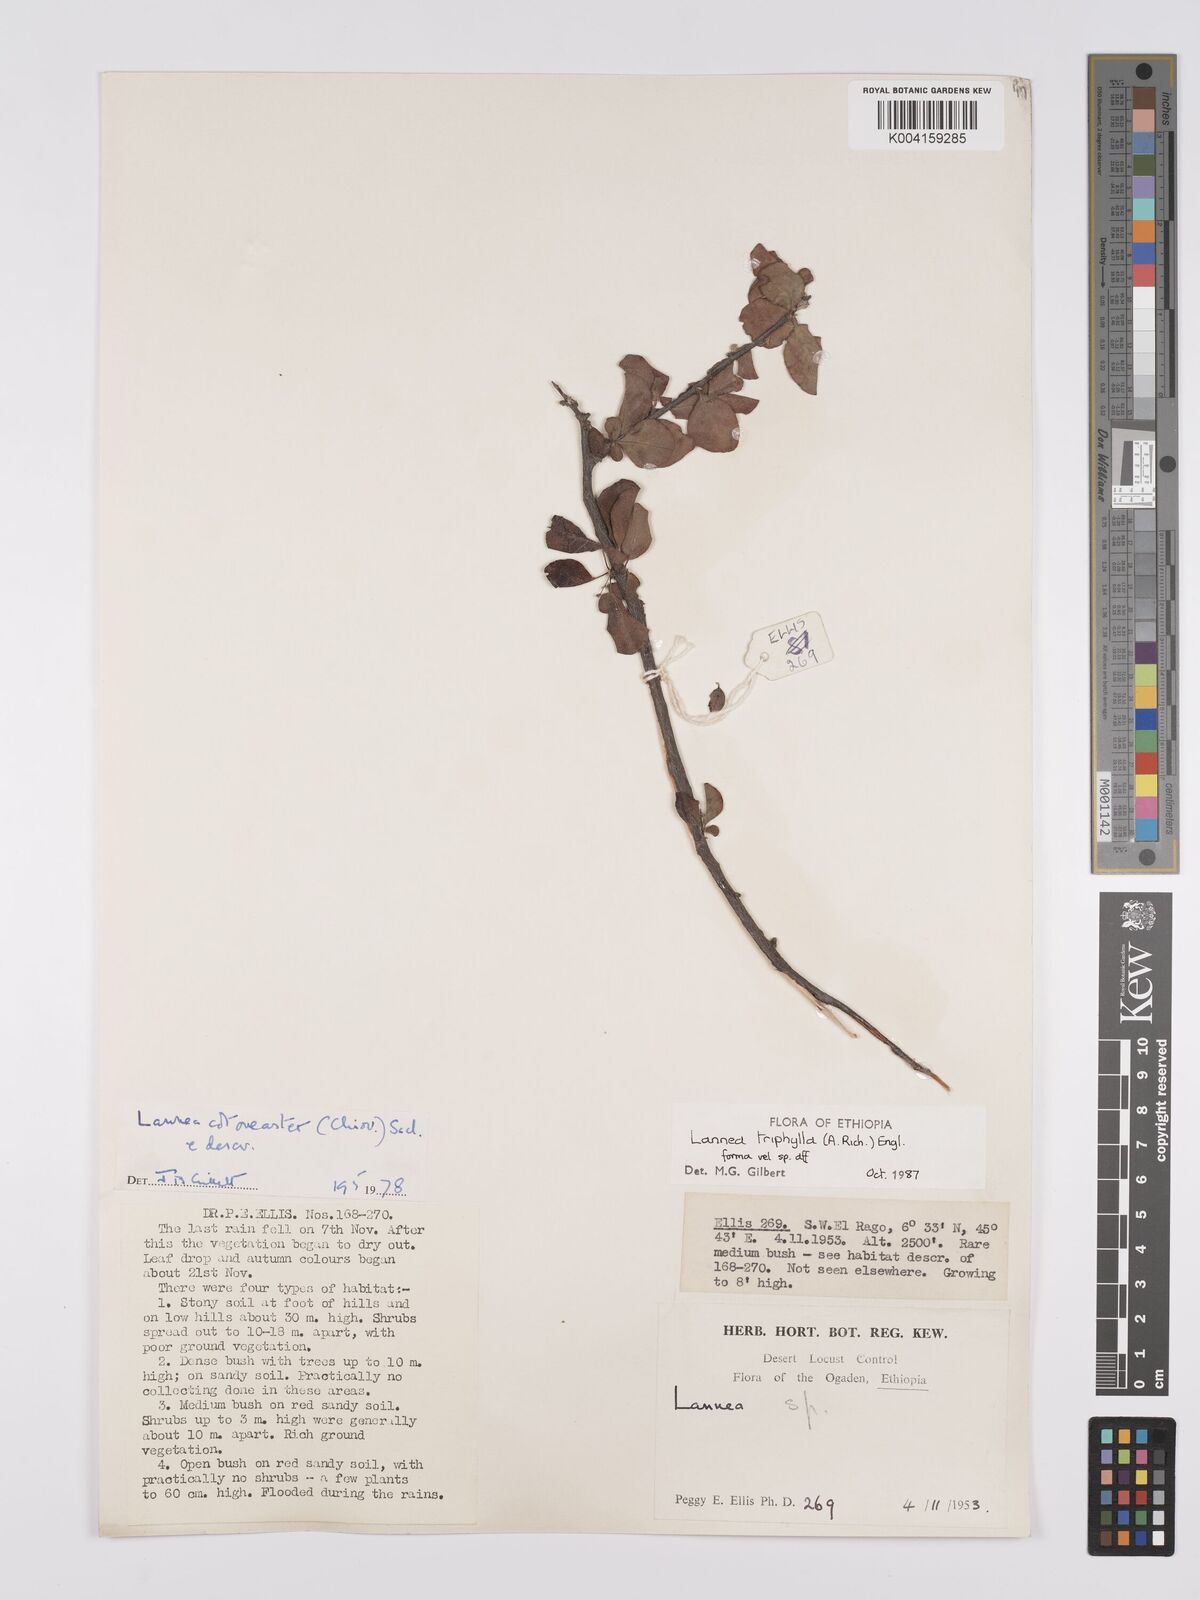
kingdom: Plantae
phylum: Tracheophyta
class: Magnoliopsida
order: Sapindales
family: Anacardiaceae
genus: Lannea
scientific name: Lannea triphylla
